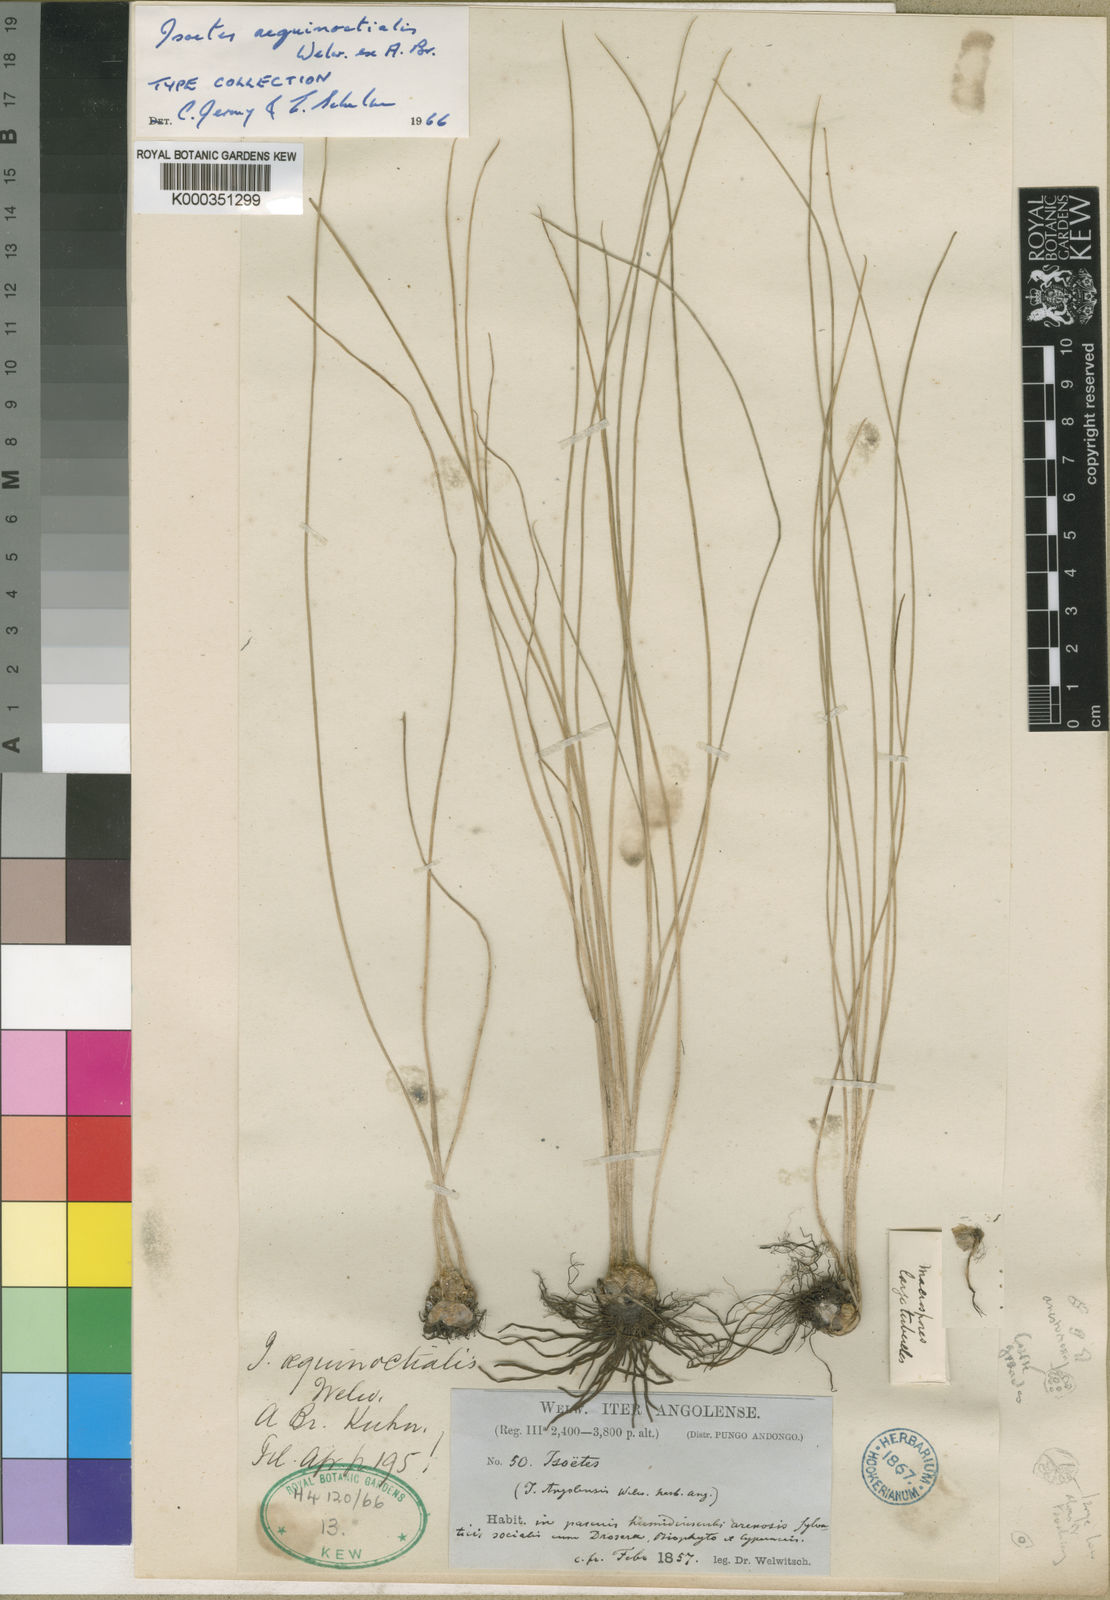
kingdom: Plantae
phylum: Tracheophyta
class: Lycopodiopsida
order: Isoetales
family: Isoetaceae
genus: Isoetes
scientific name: Isoetes
